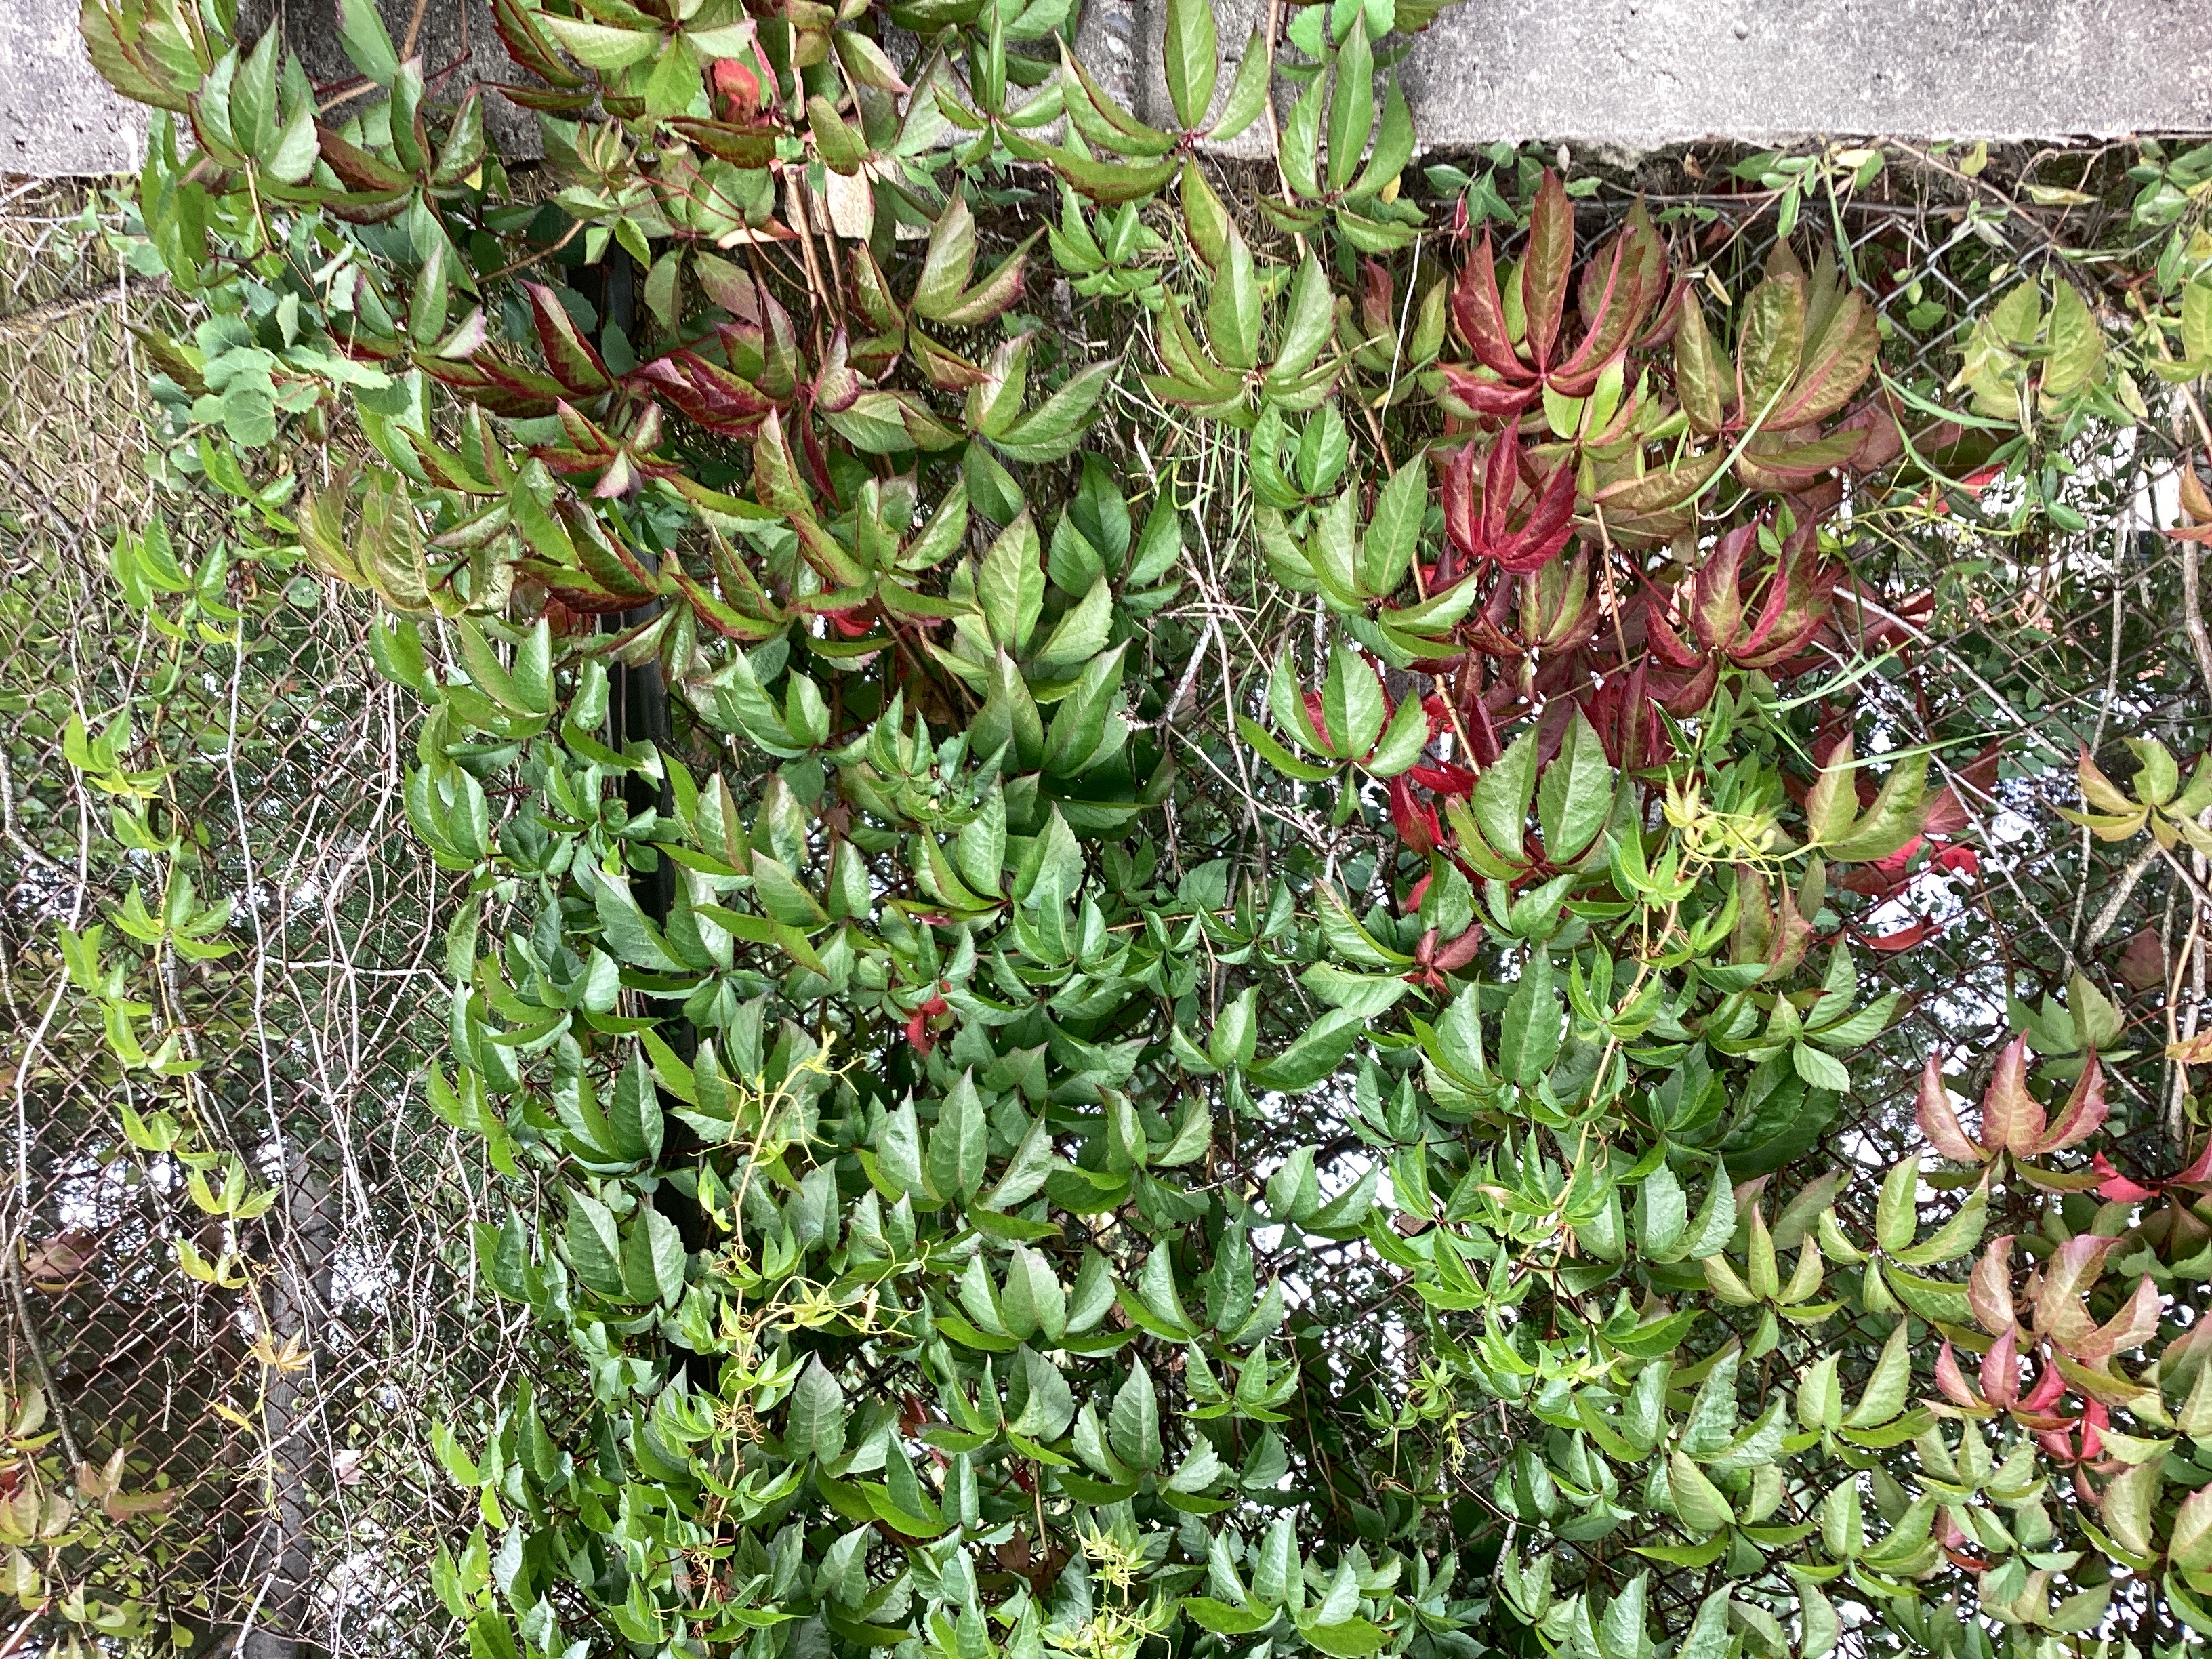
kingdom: Plantae
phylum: Tracheophyta
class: Magnoliopsida
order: Vitales
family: Vitaceae
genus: Parthenocissus
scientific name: Parthenocissus quinquefolia
